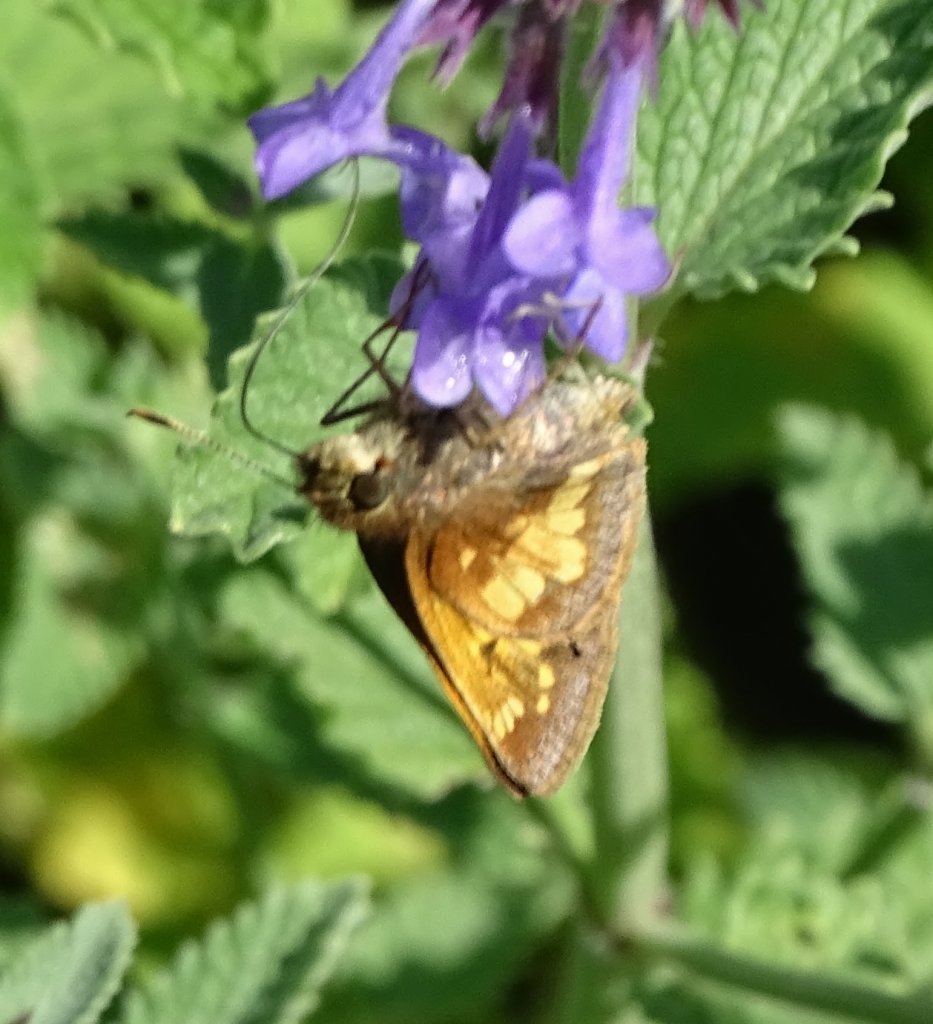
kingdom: Animalia
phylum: Arthropoda
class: Insecta
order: Lepidoptera
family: Hesperiidae
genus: Lon
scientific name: Lon hobomok
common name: Hobomok Skipper
